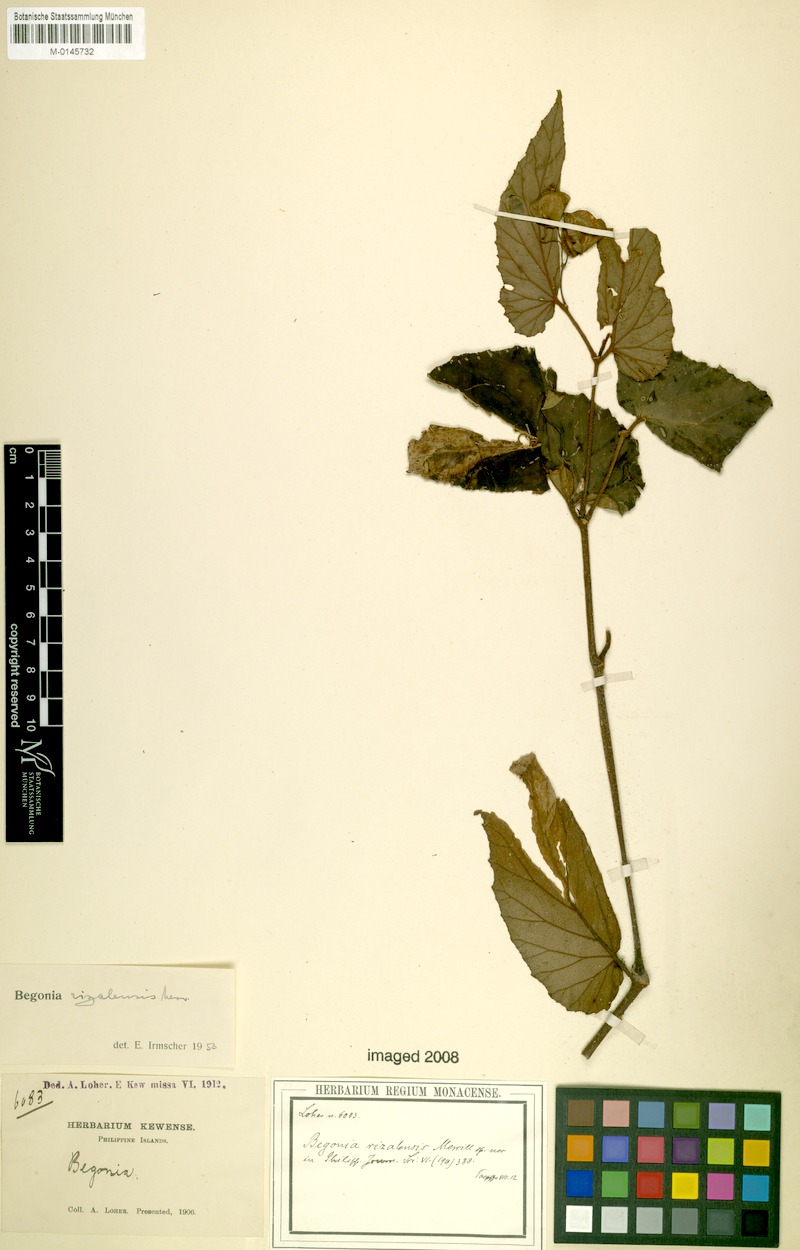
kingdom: Plantae
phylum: Tracheophyta
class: Magnoliopsida
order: Cucurbitales
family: Begoniaceae
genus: Begonia
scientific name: Begonia rizalensis
